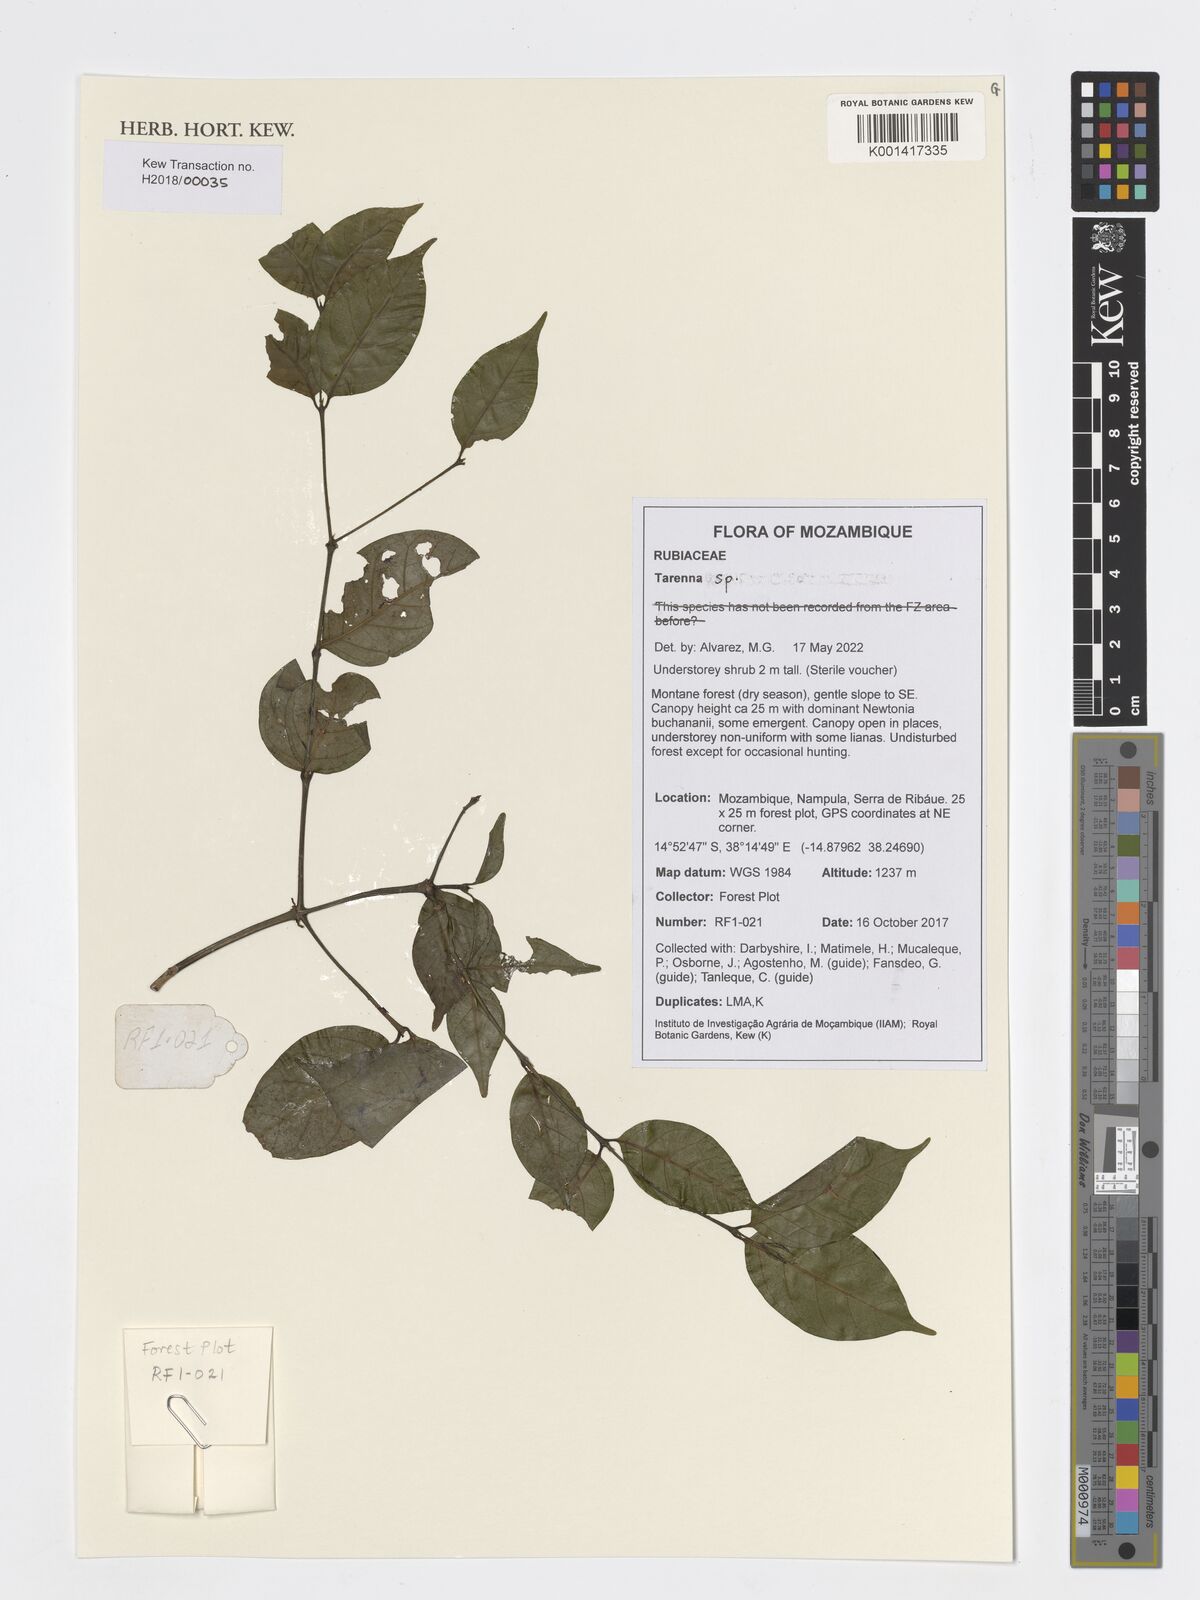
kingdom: Plantae
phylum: Tracheophyta
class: Magnoliopsida
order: Gentianales
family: Rubiaceae
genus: Tarenna
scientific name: Tarenna
